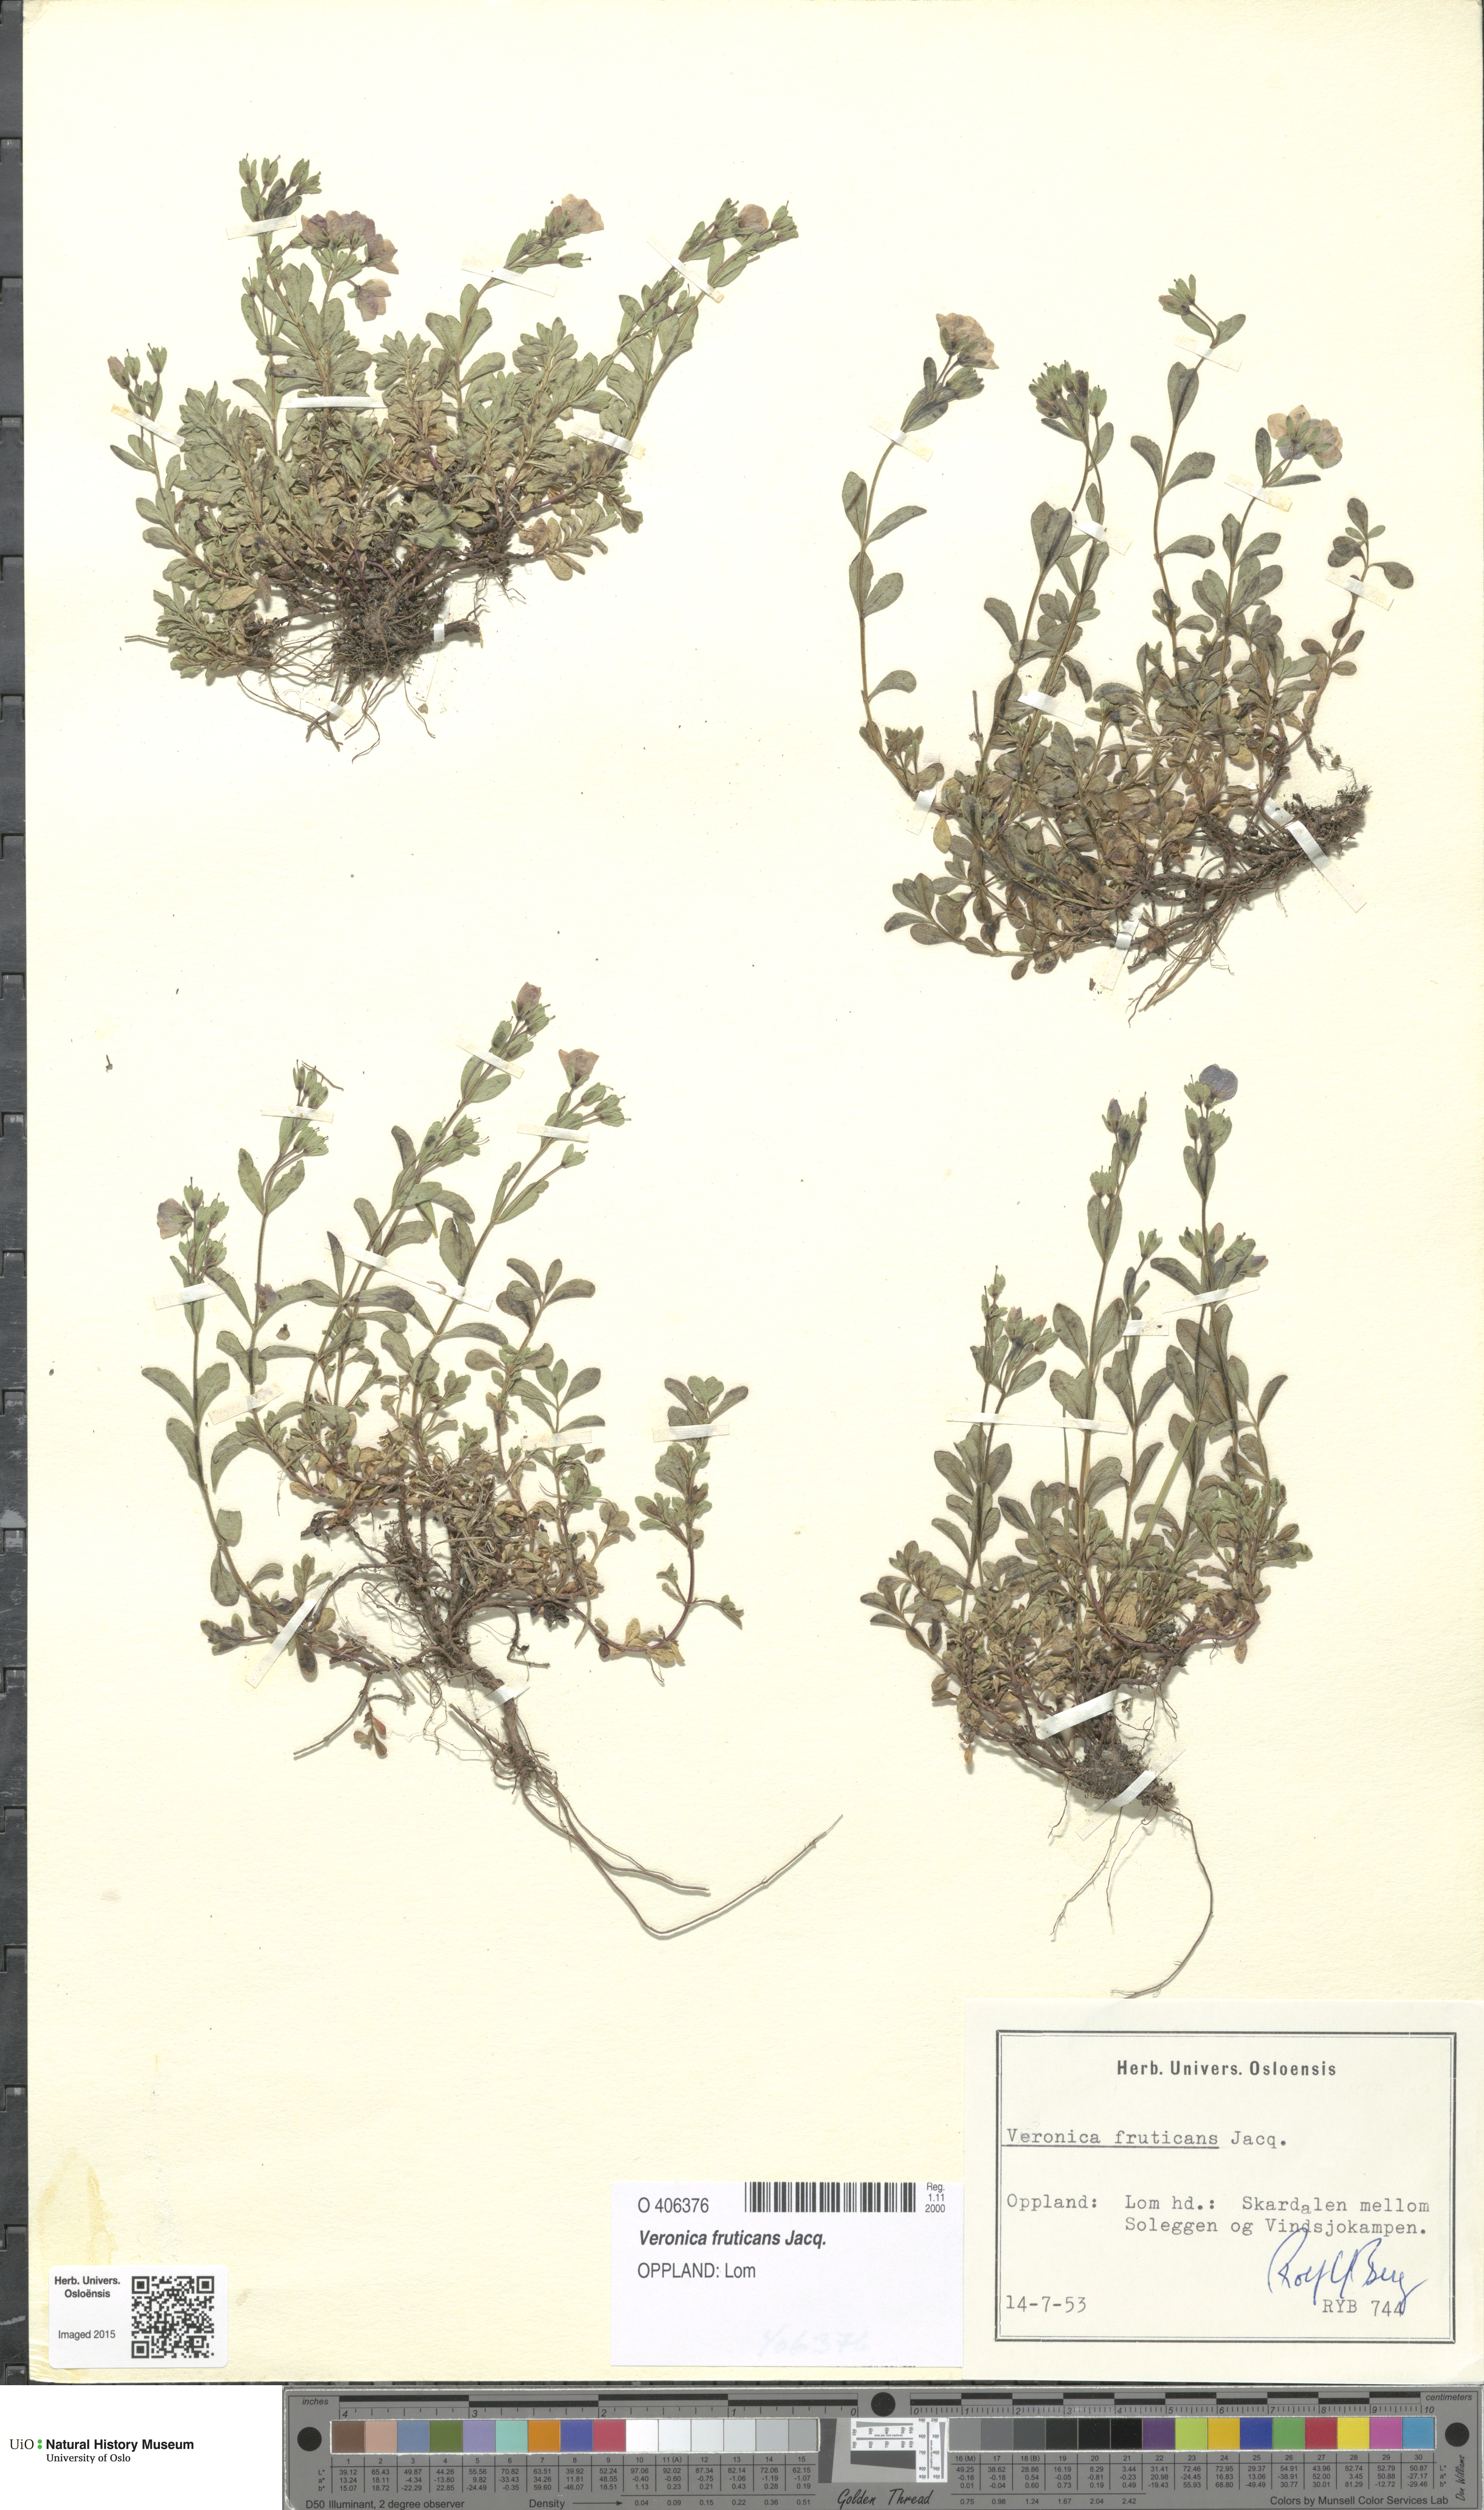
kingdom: Plantae
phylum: Tracheophyta
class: Magnoliopsida
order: Lamiales
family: Plantaginaceae
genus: Veronica
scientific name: Veronica fruticans
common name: Rock speedwell
